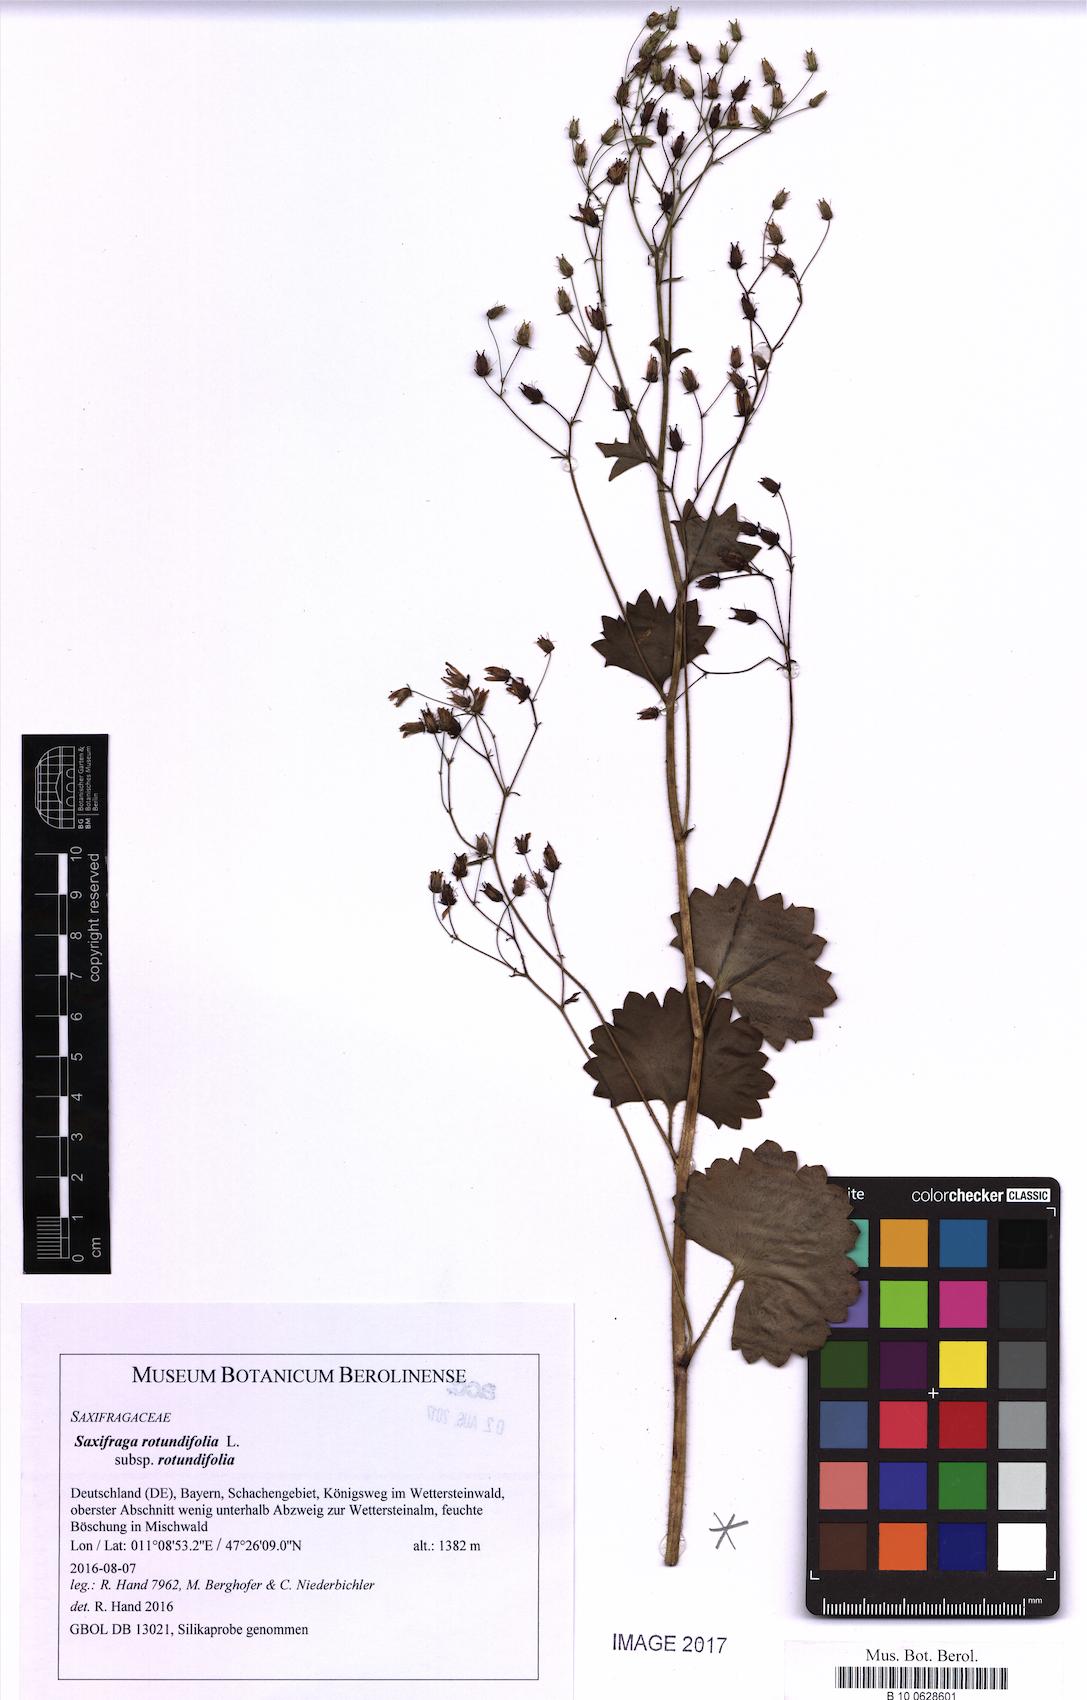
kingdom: Plantae
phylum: Tracheophyta
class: Magnoliopsida
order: Saxifragales
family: Saxifragaceae
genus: Saxifraga
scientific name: Saxifraga rotundifolia
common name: Round-leaved saxifrage
